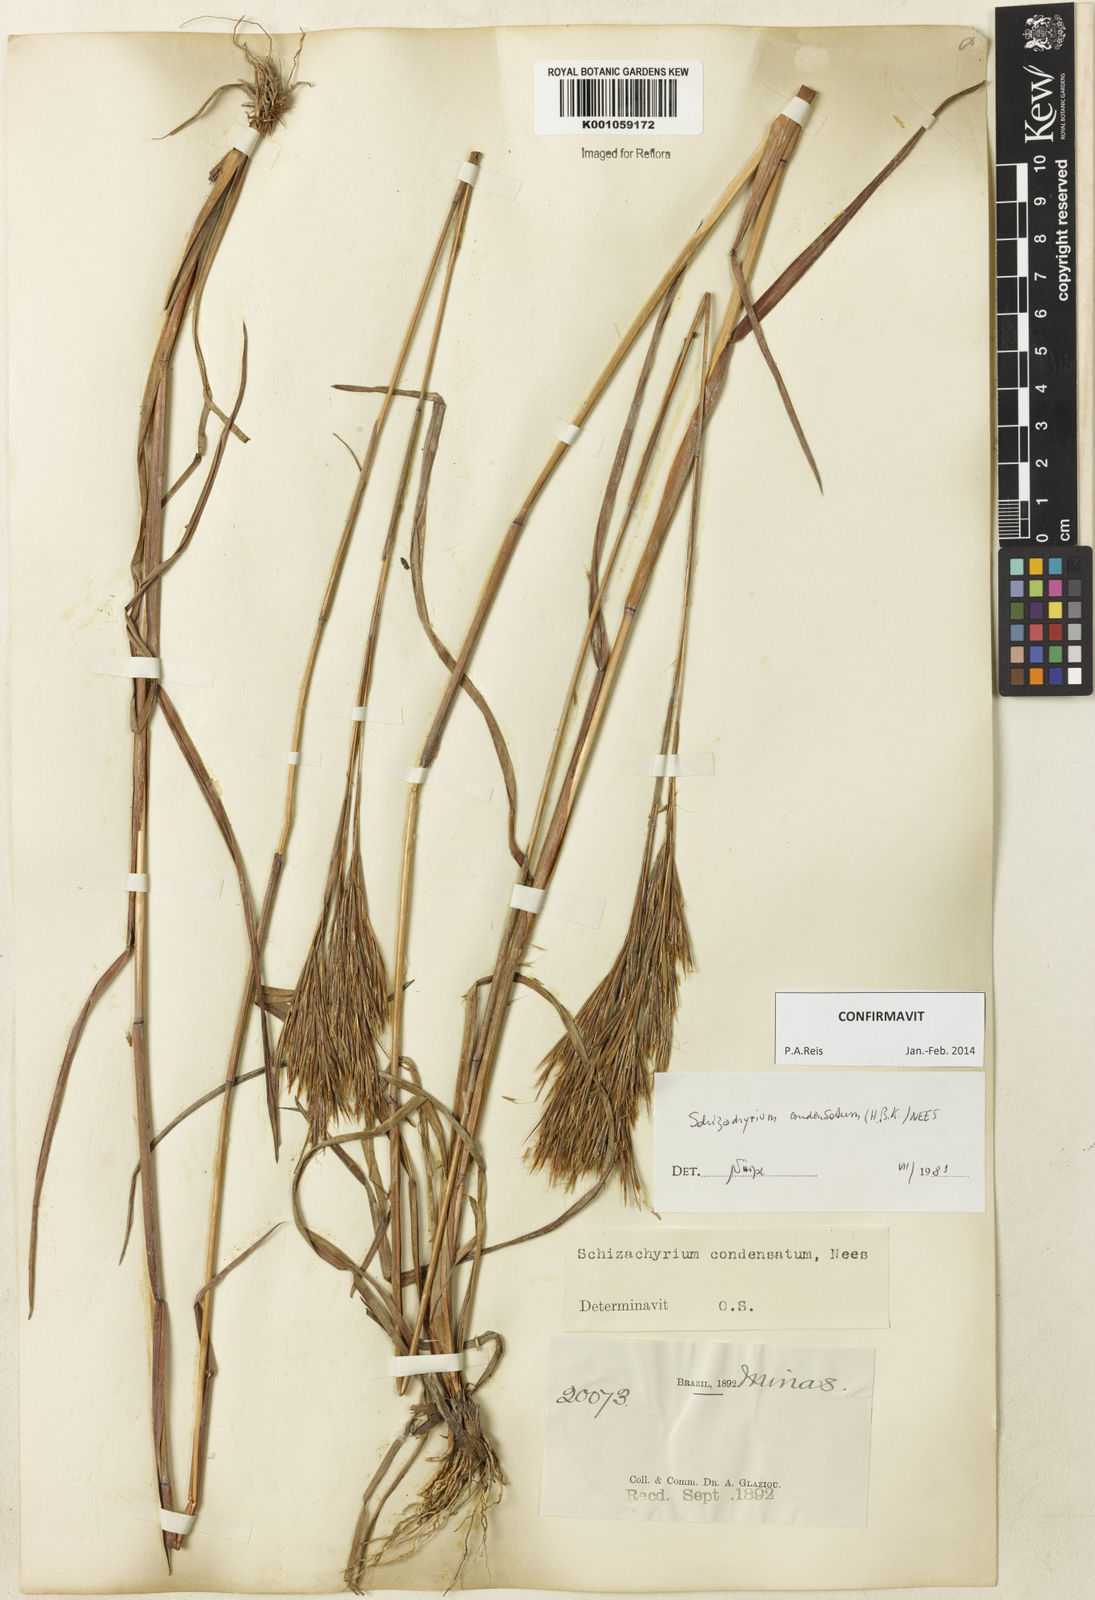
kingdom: Plantae
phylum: Tracheophyta
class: Liliopsida
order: Poales
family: Poaceae
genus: Schizachyrium
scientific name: Schizachyrium condensatum
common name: Bush beardgrass
